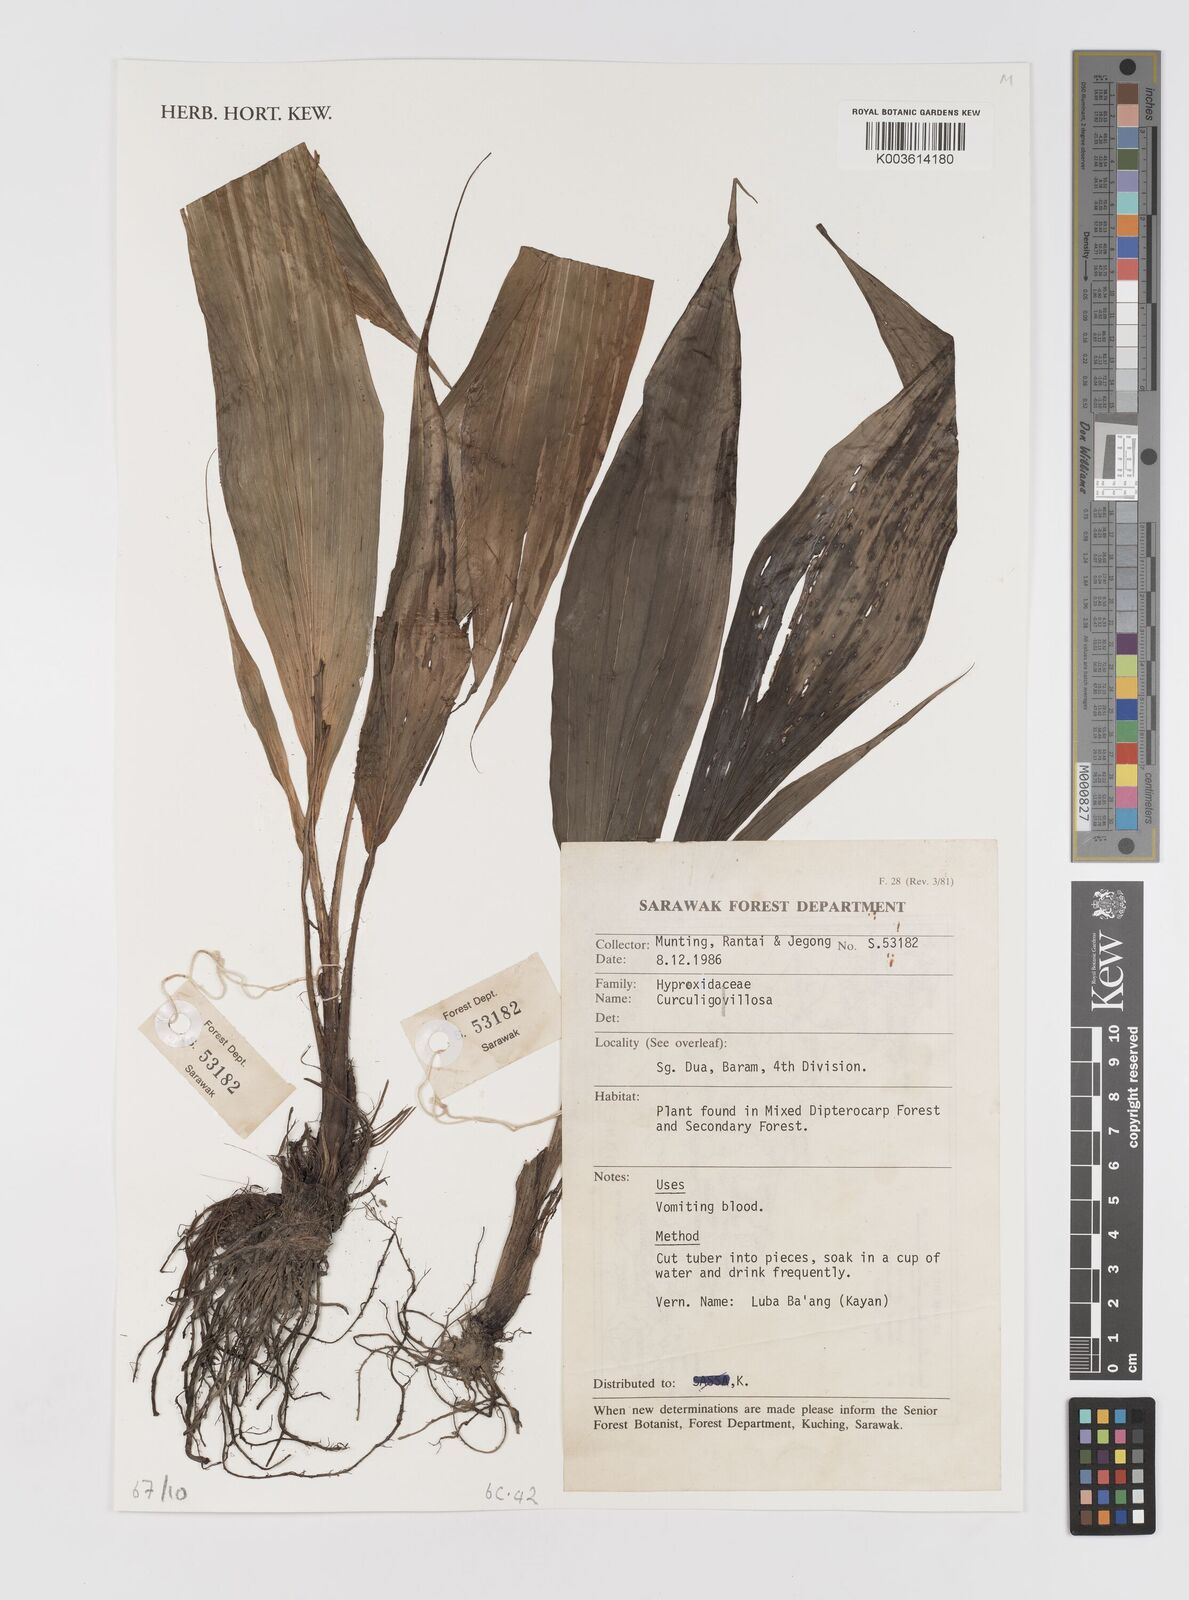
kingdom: Plantae
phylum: Tracheophyta
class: Liliopsida
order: Asparagales
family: Hypoxidaceae
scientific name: Hypoxidaceae
